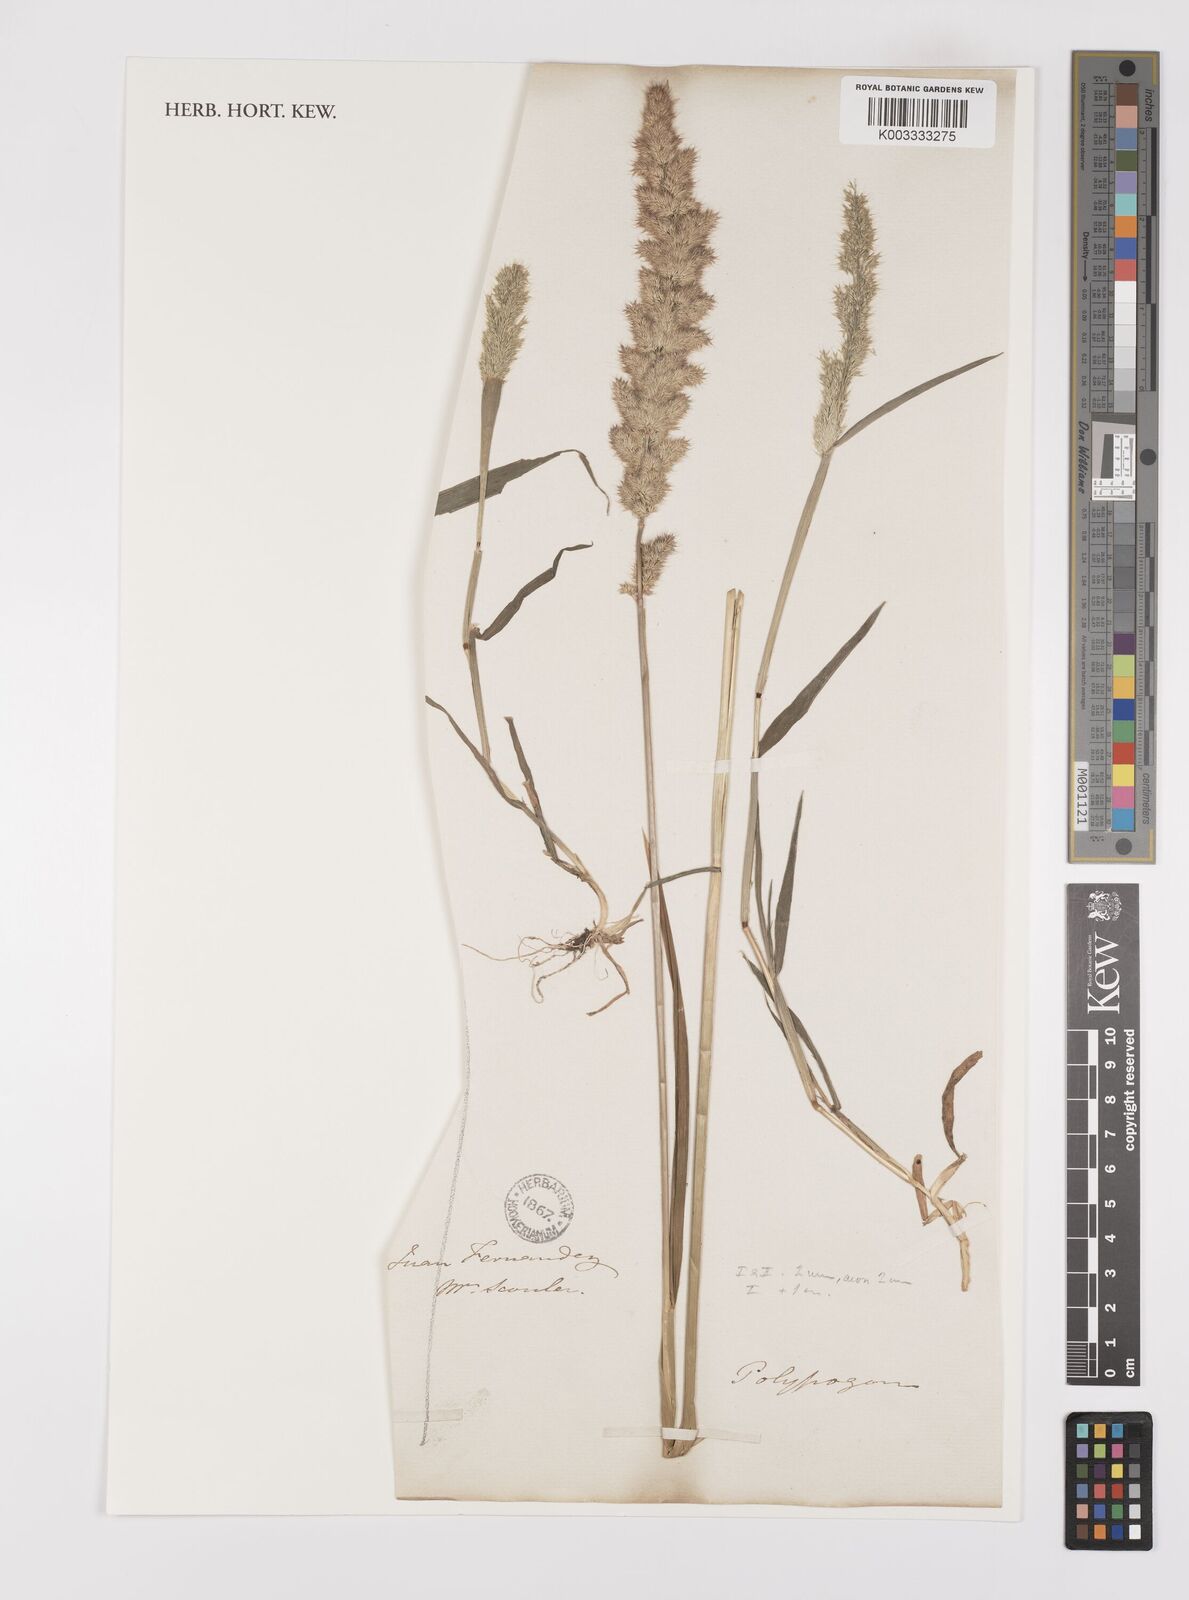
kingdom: Plantae
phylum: Tracheophyta
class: Liliopsida
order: Poales
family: Poaceae
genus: Polypogon
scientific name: Polypogon interruptus
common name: Ditch polypogon
